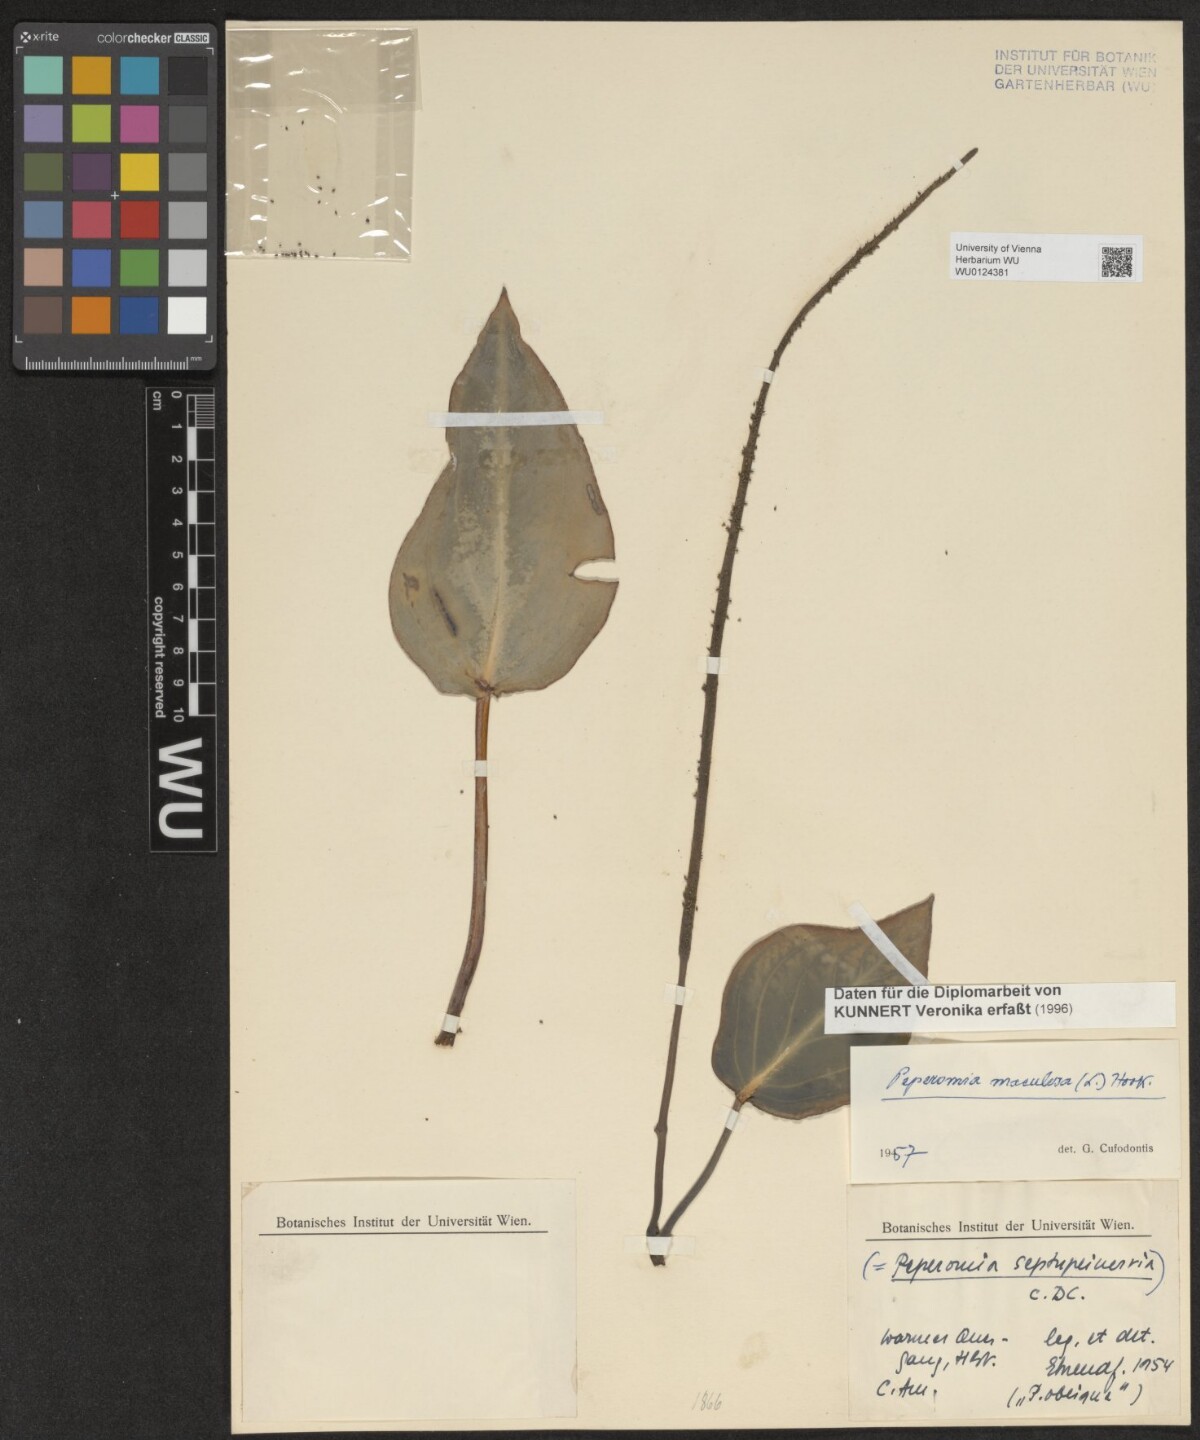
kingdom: Plantae
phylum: Tracheophyta
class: Magnoliopsida
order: Piperales
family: Piperaceae
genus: Peperomia
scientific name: Peperomia maculosa
